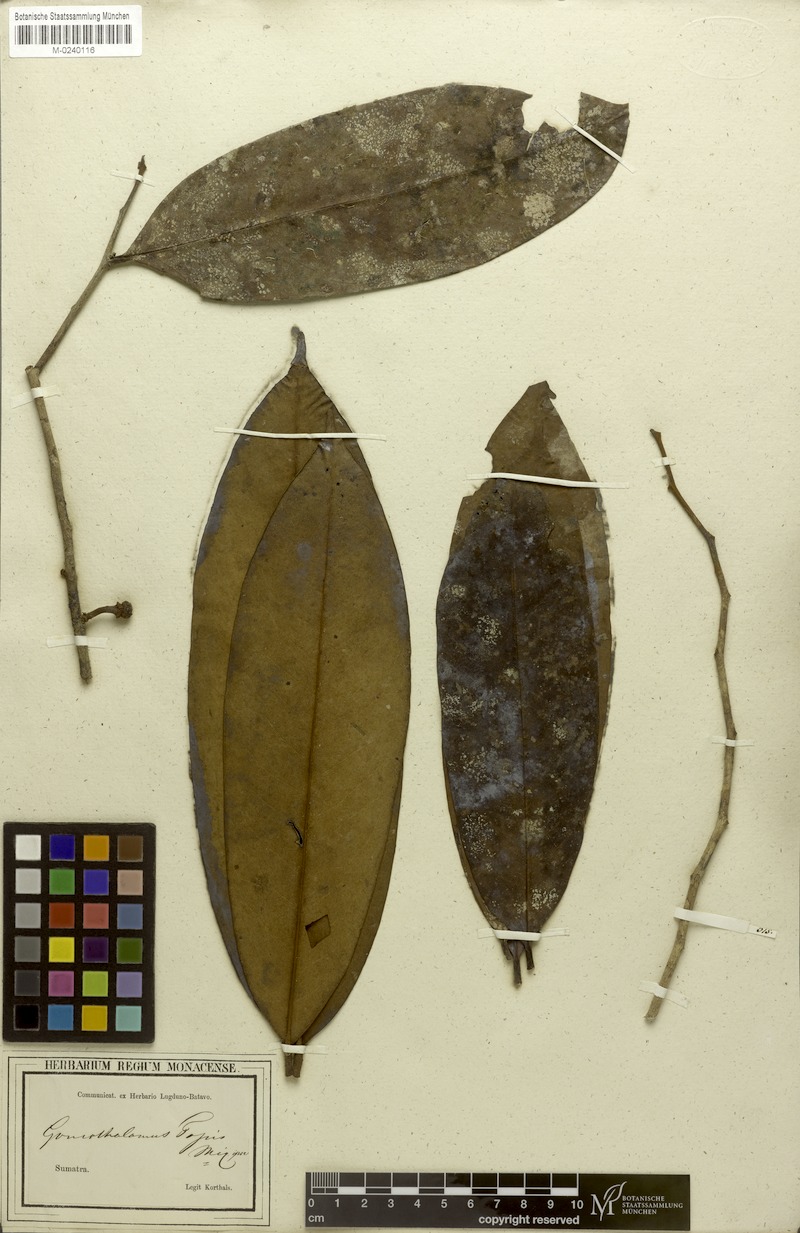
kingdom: Plantae
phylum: Tracheophyta
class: Magnoliopsida
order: Magnoliales
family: Annonaceae
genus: Goniothalamus
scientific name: Goniothalamus tapis
